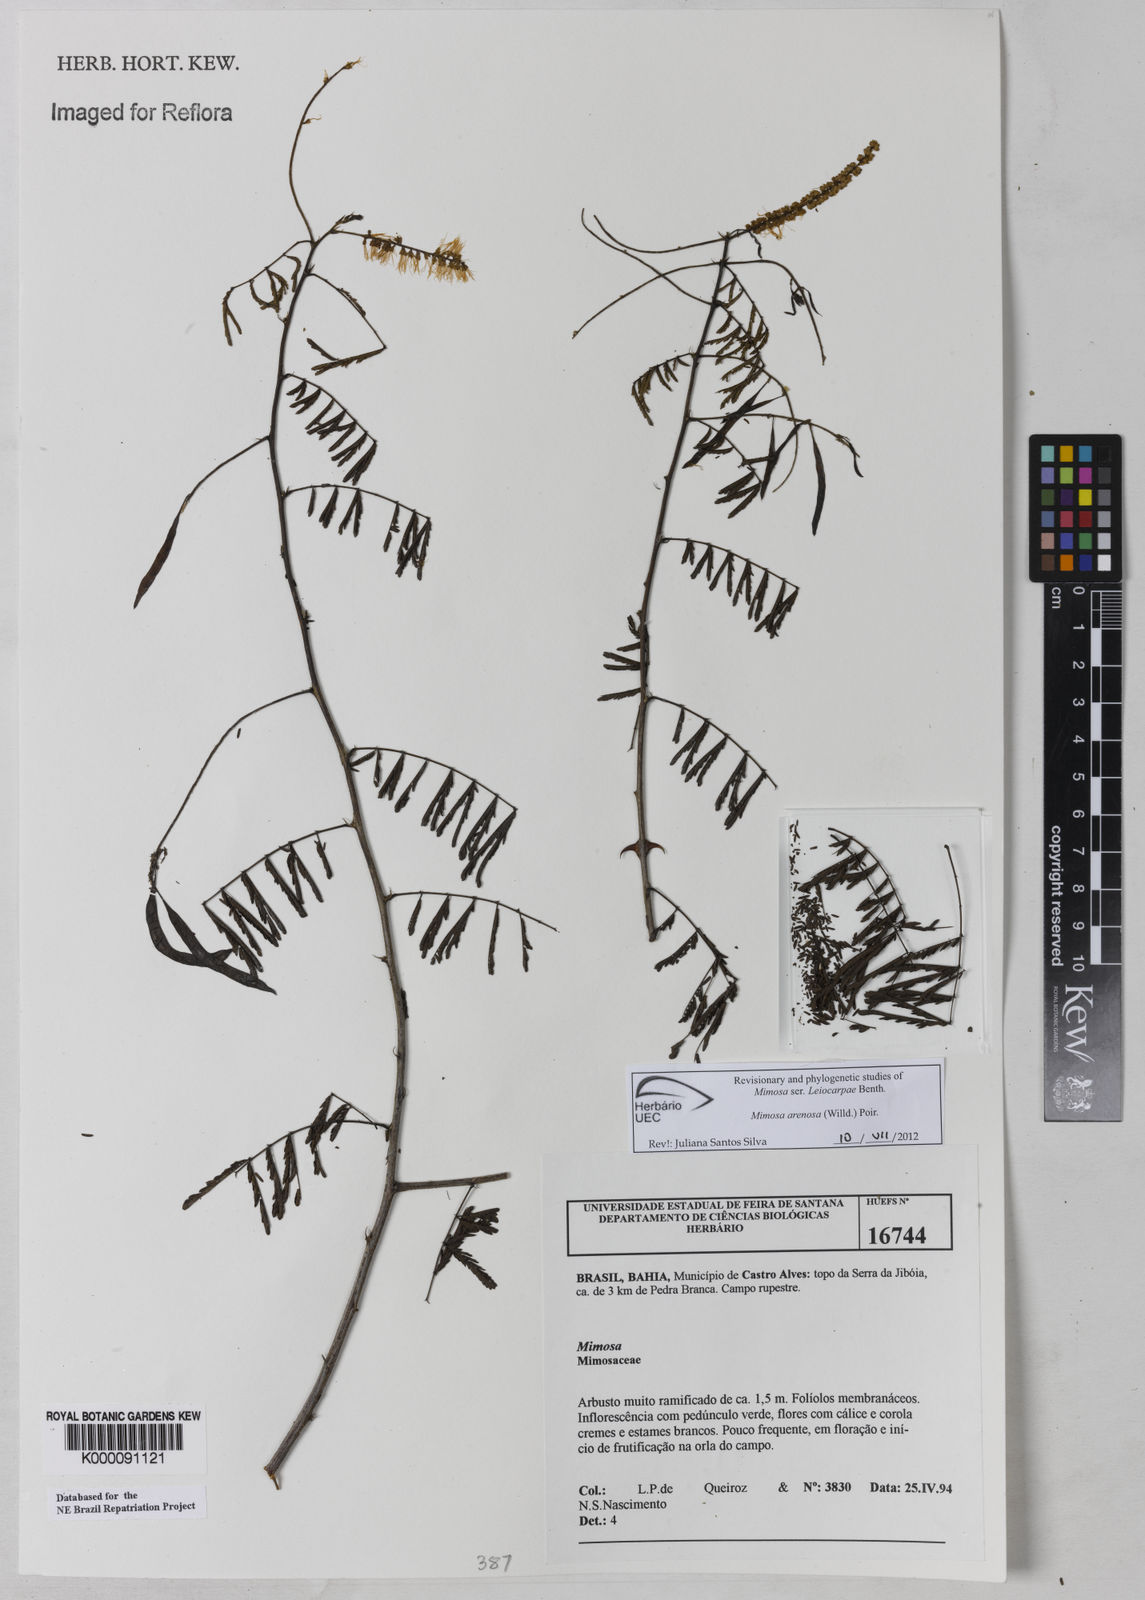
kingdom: Plantae
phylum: Tracheophyta
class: Magnoliopsida
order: Fabales
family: Fabaceae
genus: Mimosa
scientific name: Mimosa
